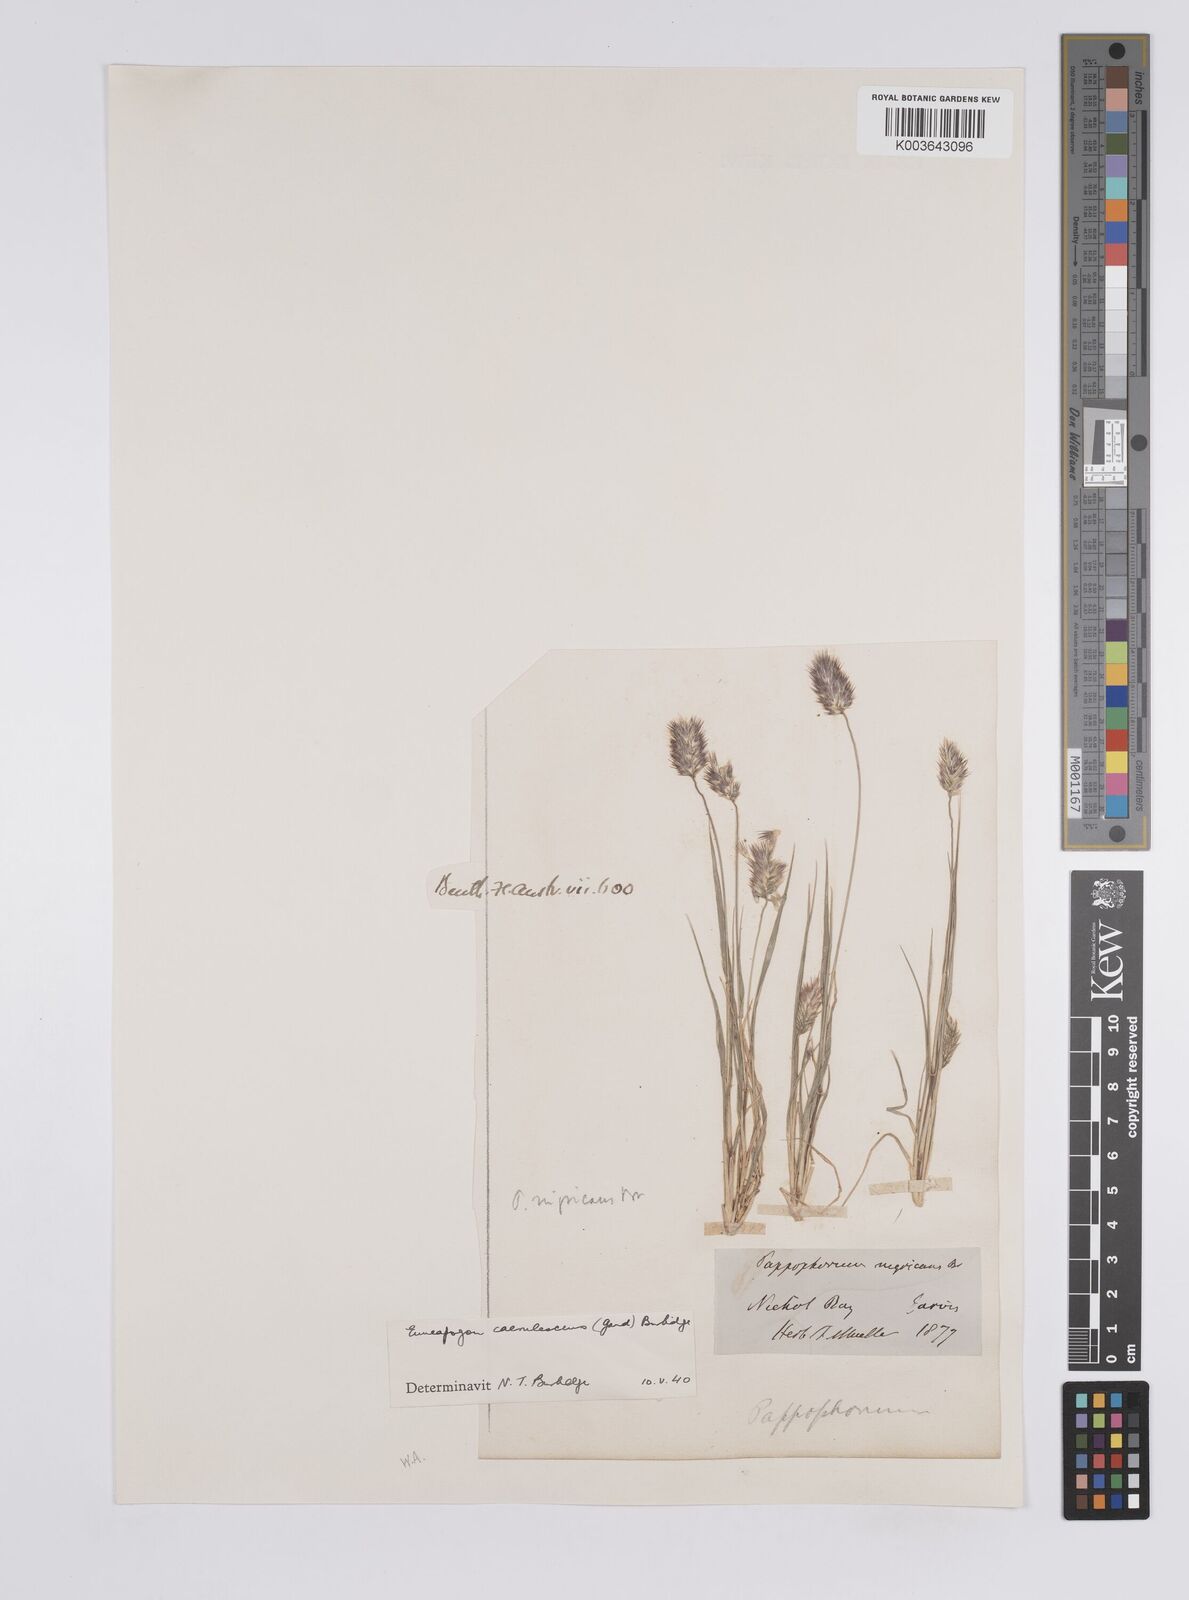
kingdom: Plantae
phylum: Tracheophyta
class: Liliopsida
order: Poales
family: Poaceae
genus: Enneapogon
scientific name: Enneapogon caerulescens
